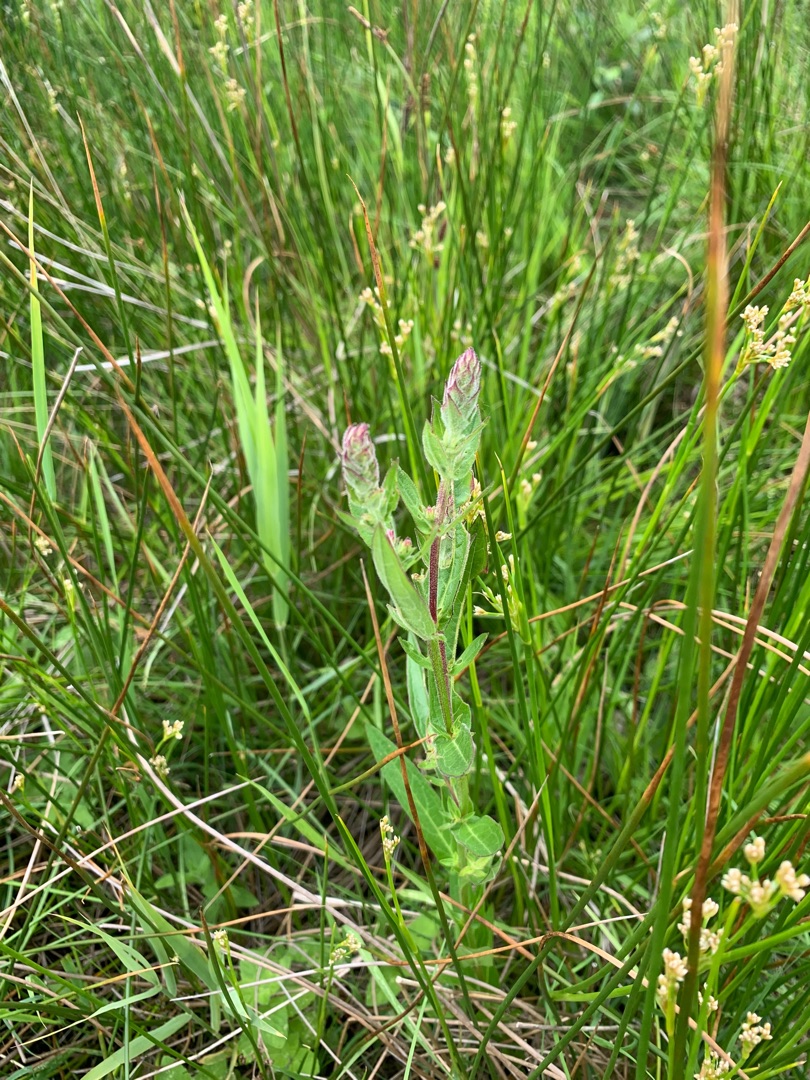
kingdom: Plantae
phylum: Tracheophyta
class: Magnoliopsida
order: Myrtales
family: Lythraceae
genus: Lythrum
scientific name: Lythrum salicaria
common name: Kattehale
